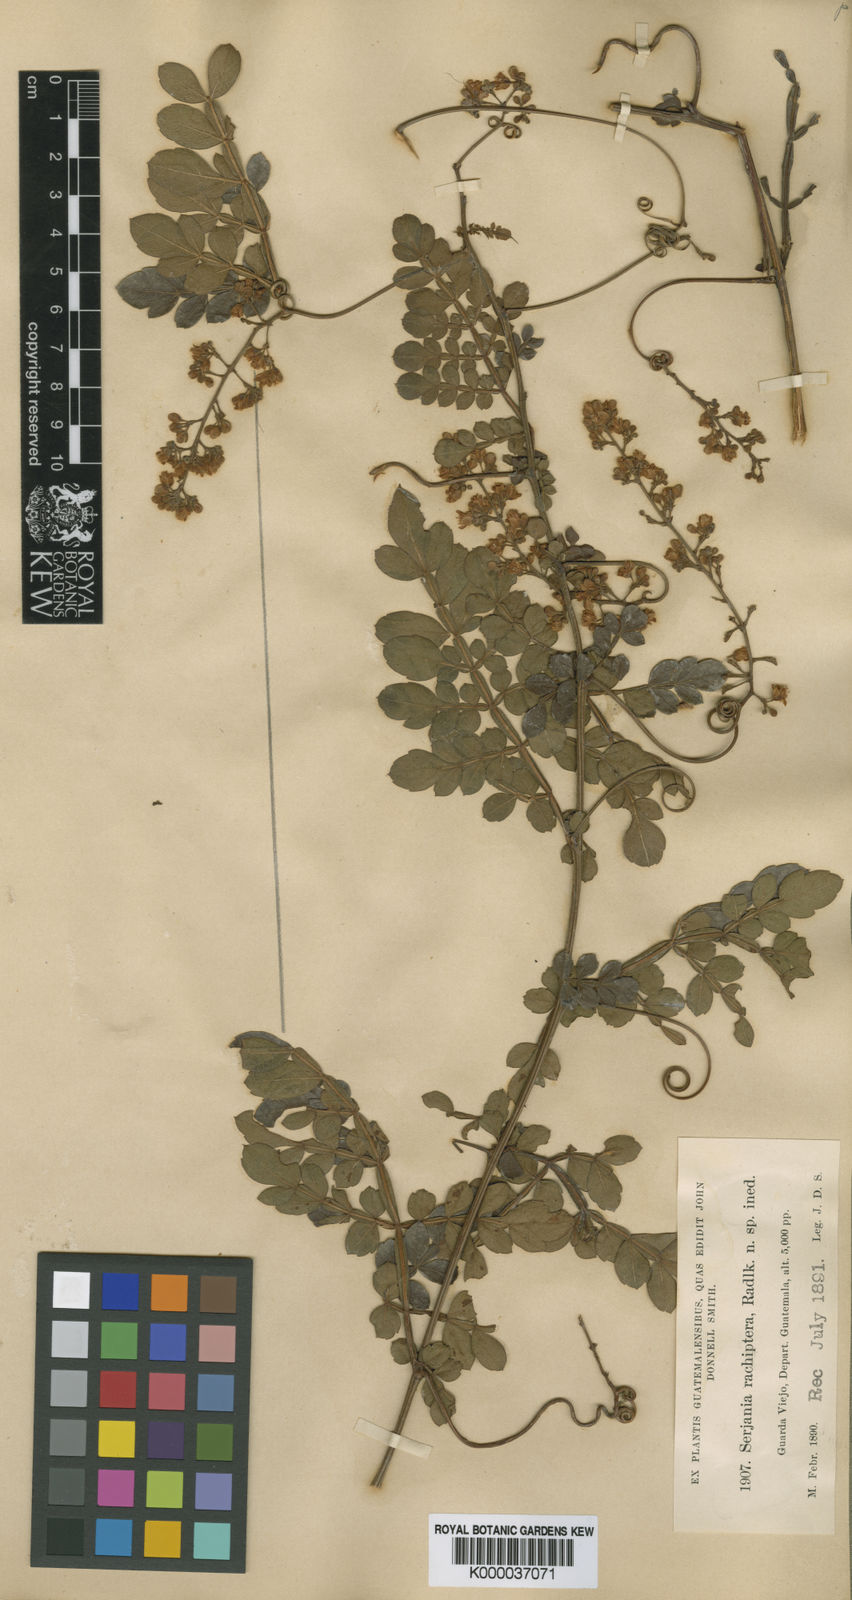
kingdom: Plantae
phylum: Tracheophyta
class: Magnoliopsida
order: Sapindales
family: Sapindaceae
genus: Serjania
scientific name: Serjania
